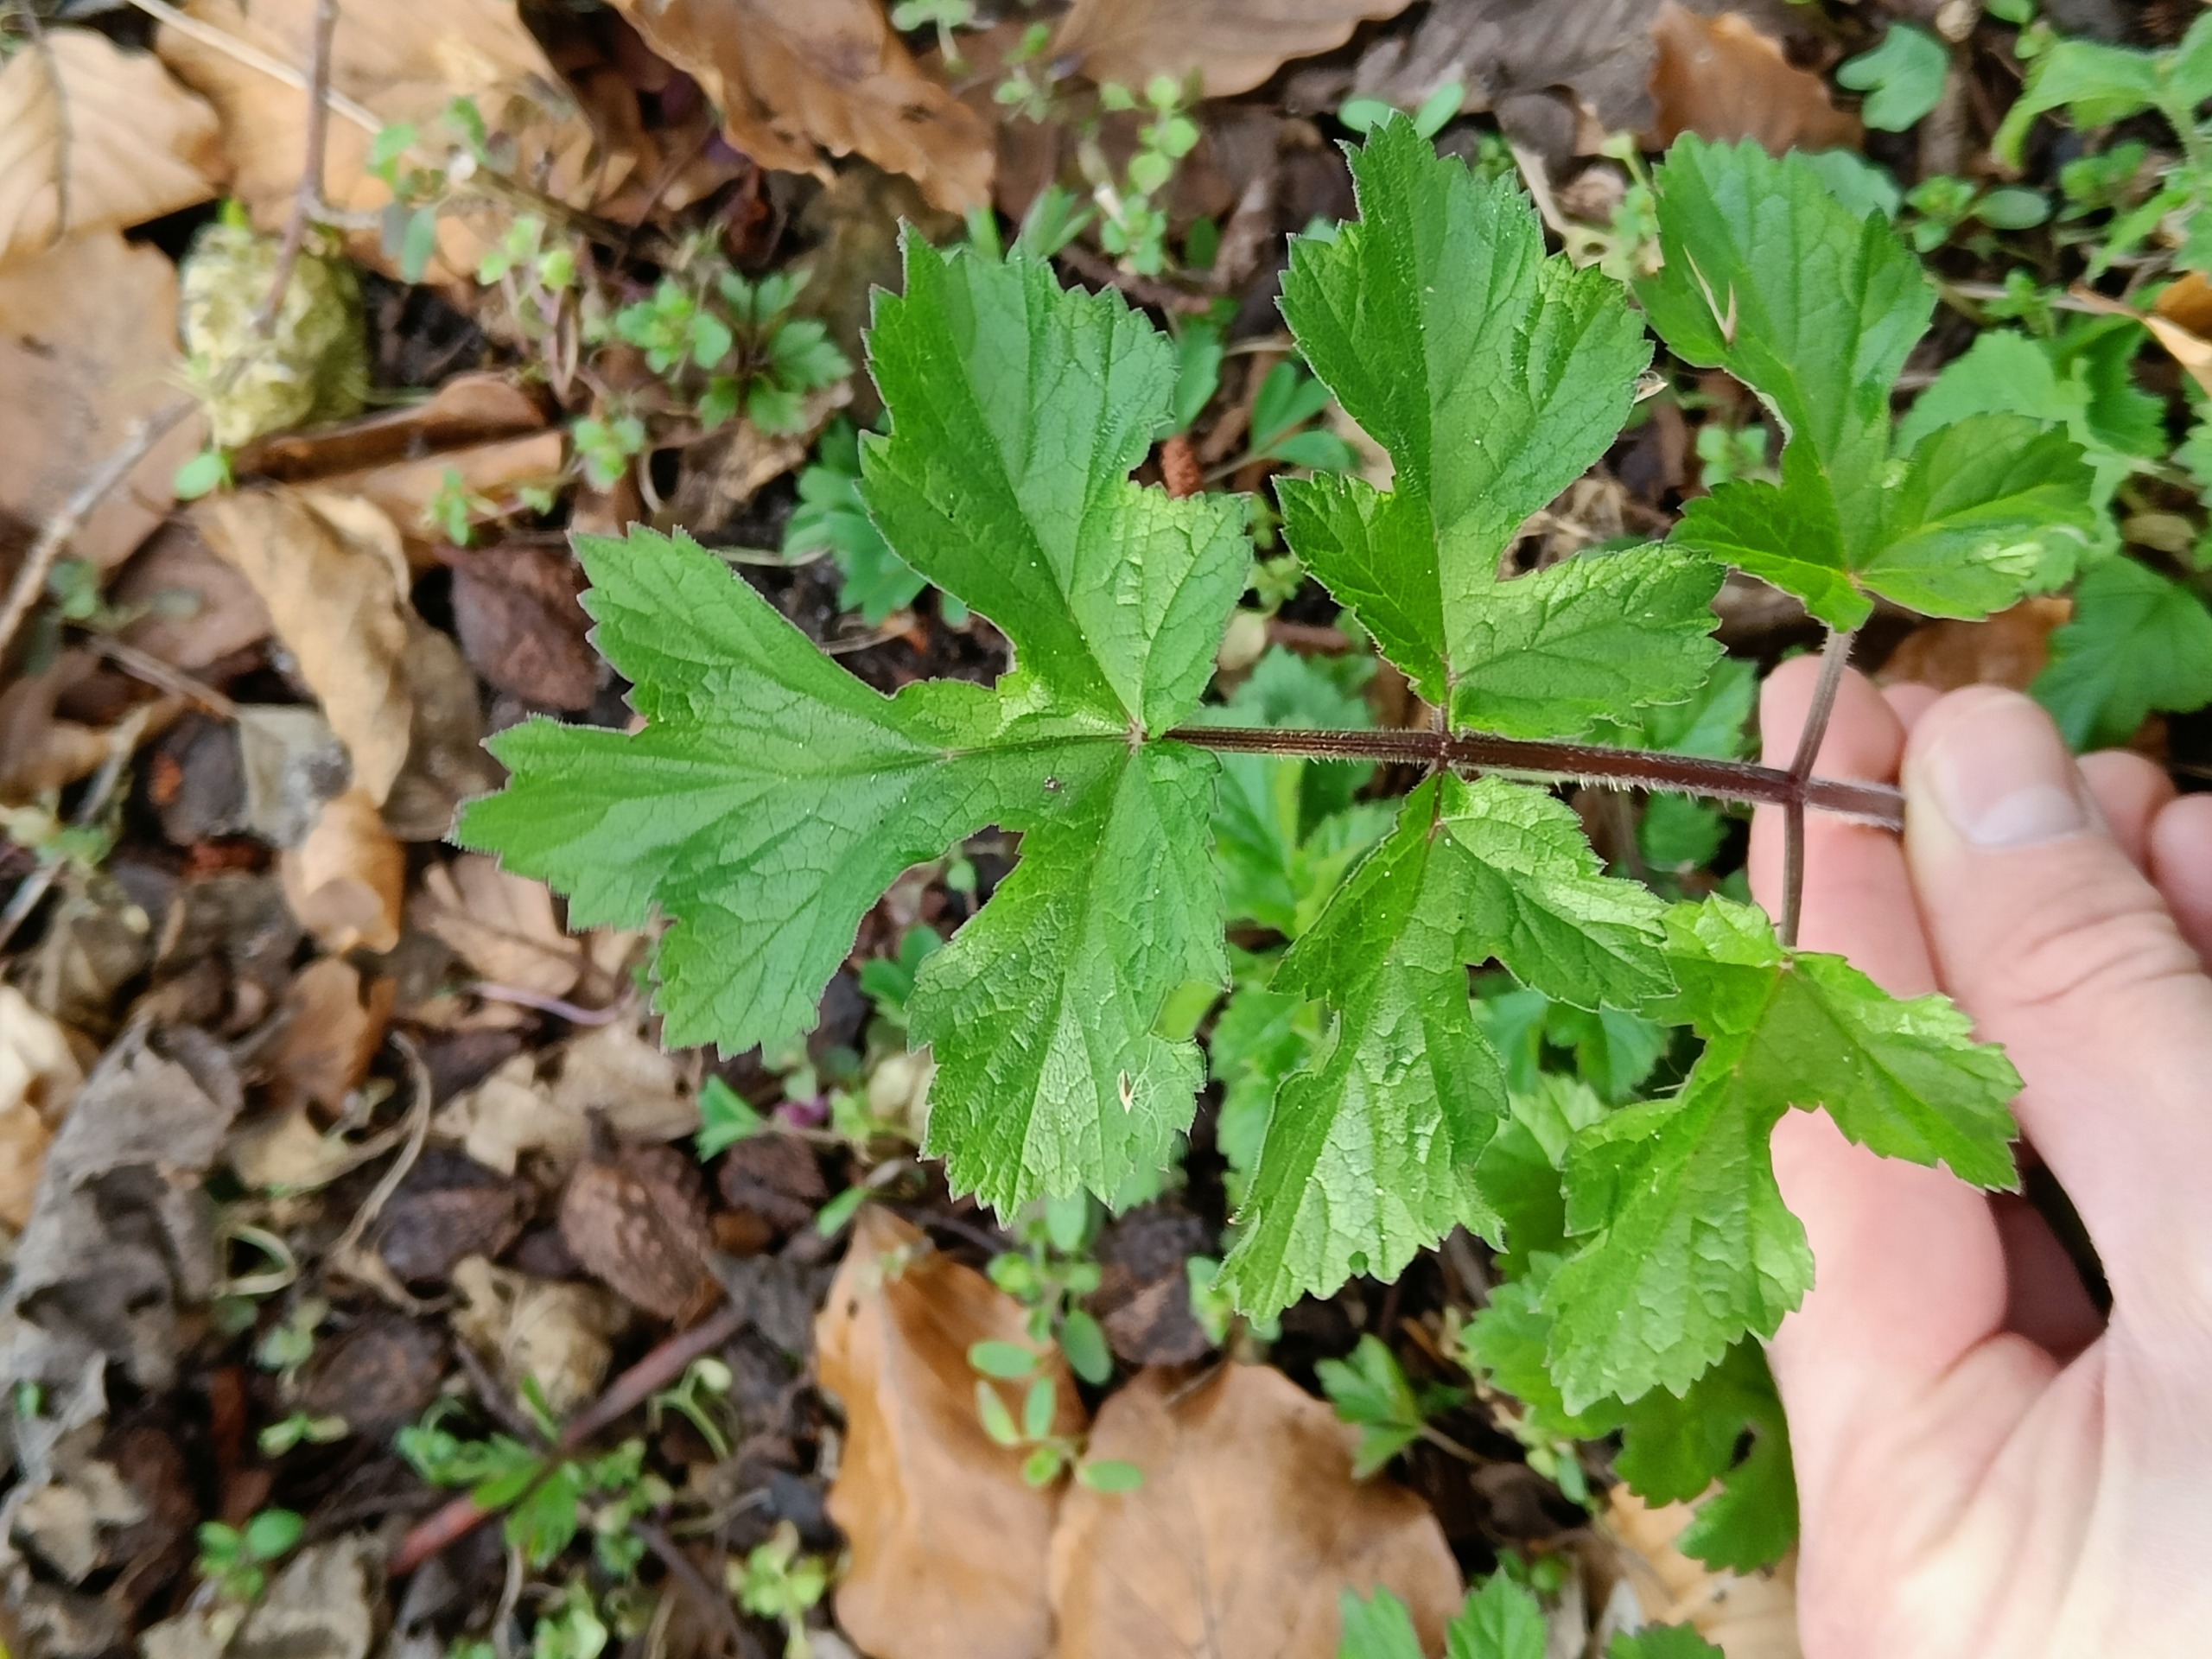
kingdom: Plantae
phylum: Tracheophyta
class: Magnoliopsida
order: Apiales
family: Apiaceae
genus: Heracleum
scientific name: Heracleum sphondylium
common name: Almindelig bjørneklo
